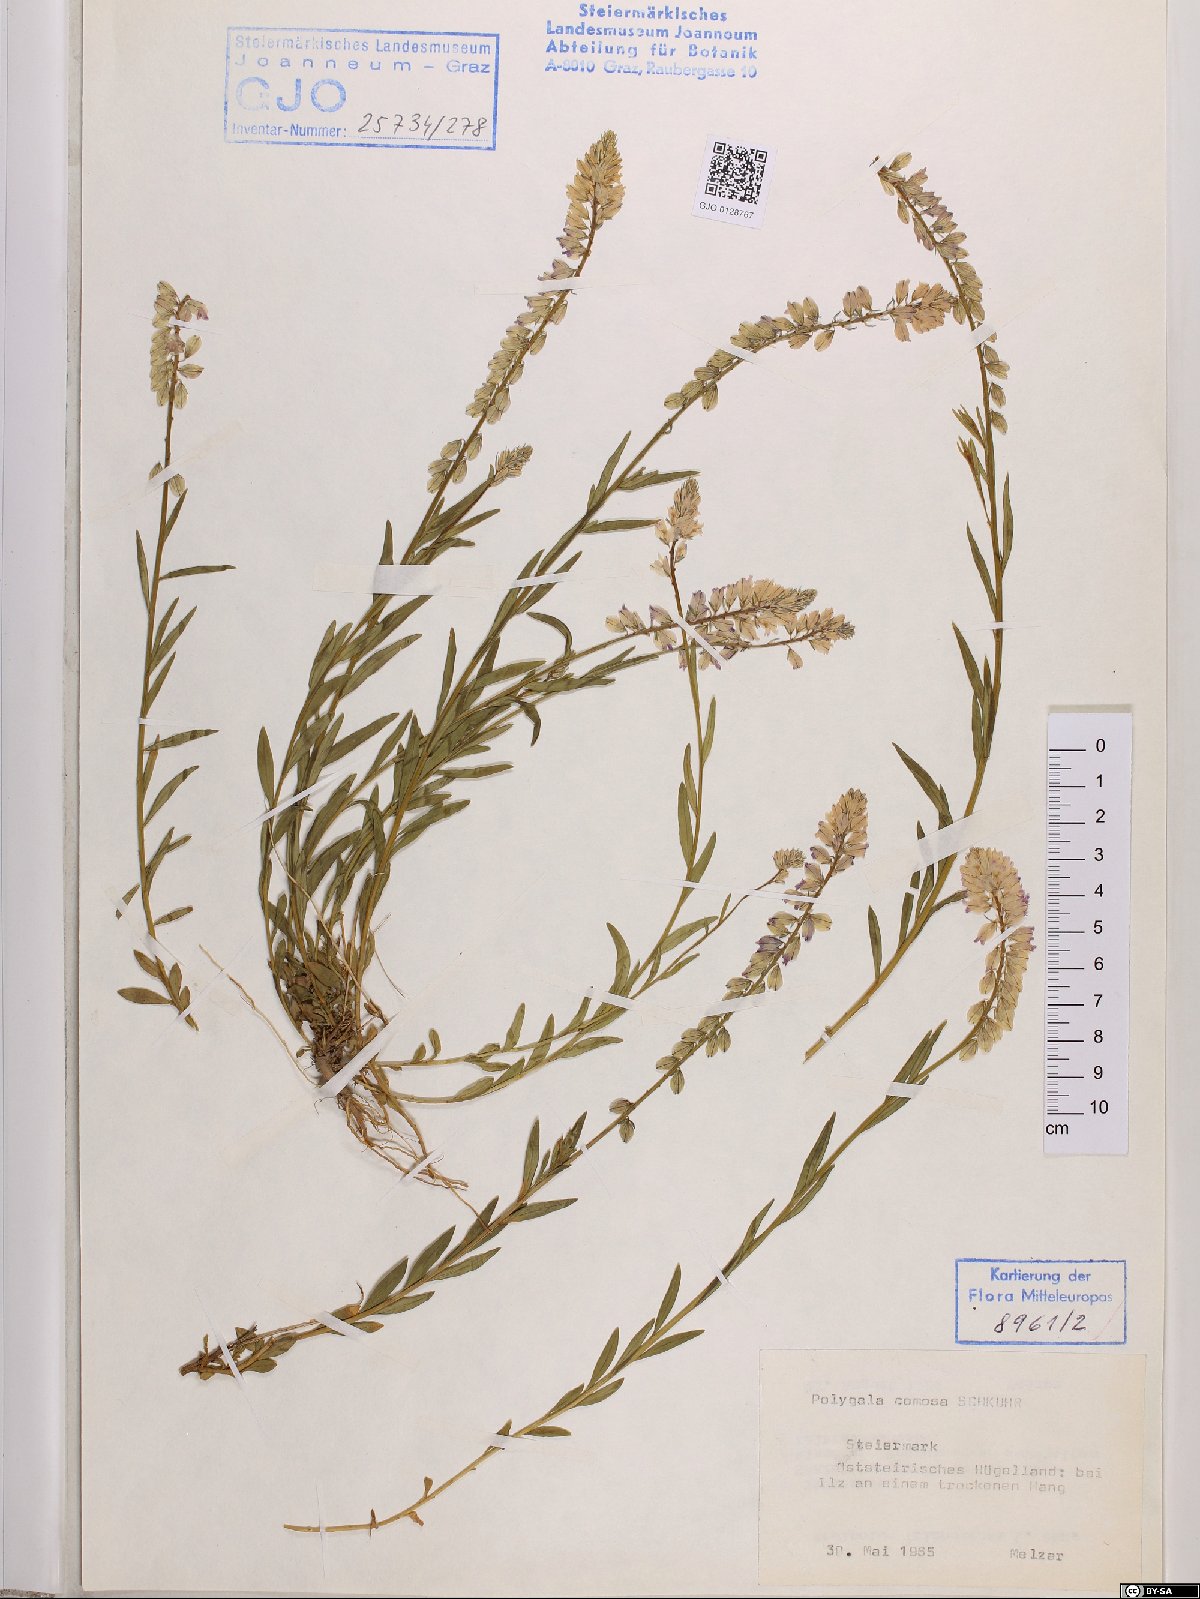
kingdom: Plantae
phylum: Tracheophyta
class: Magnoliopsida
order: Fabales
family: Polygalaceae
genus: Polygala
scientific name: Polygala comosa
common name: Tufted milkwort
